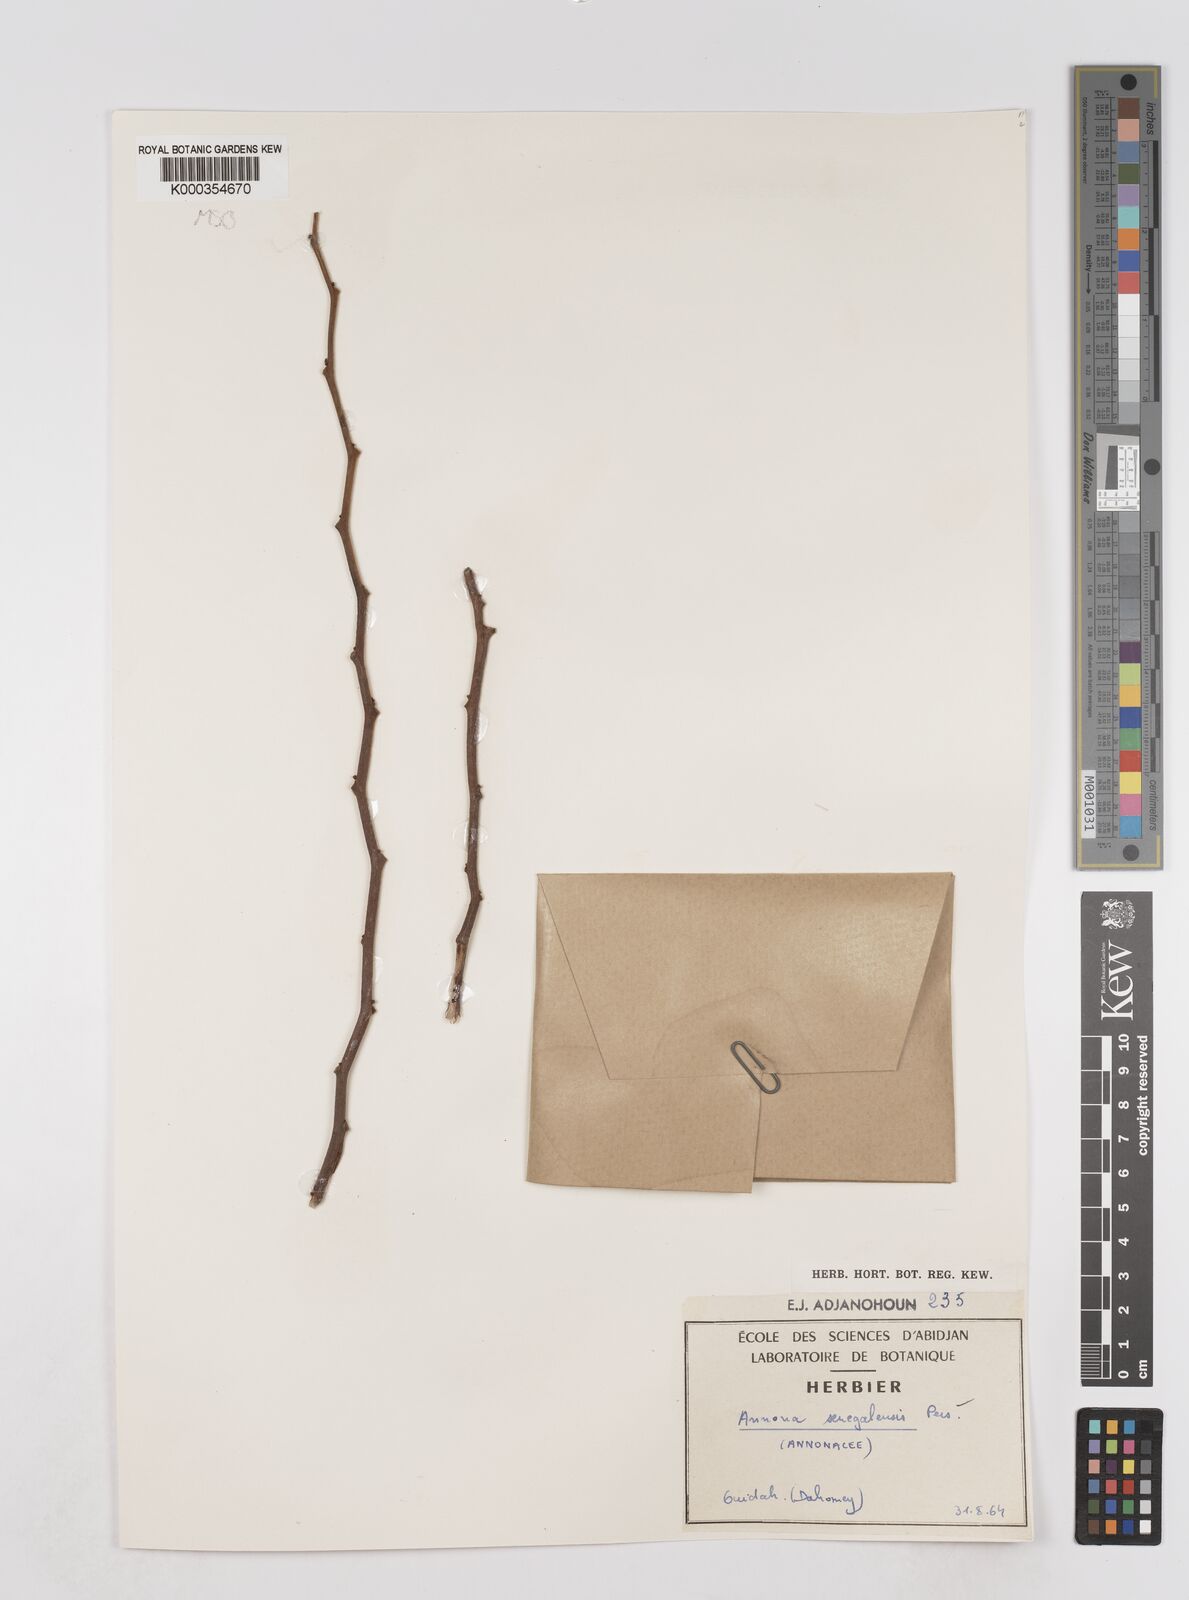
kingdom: Plantae
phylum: Tracheophyta
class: Magnoliopsida
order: Magnoliales
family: Annonaceae
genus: Annona
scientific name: Annona senegalensis
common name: Wild custard-apple
